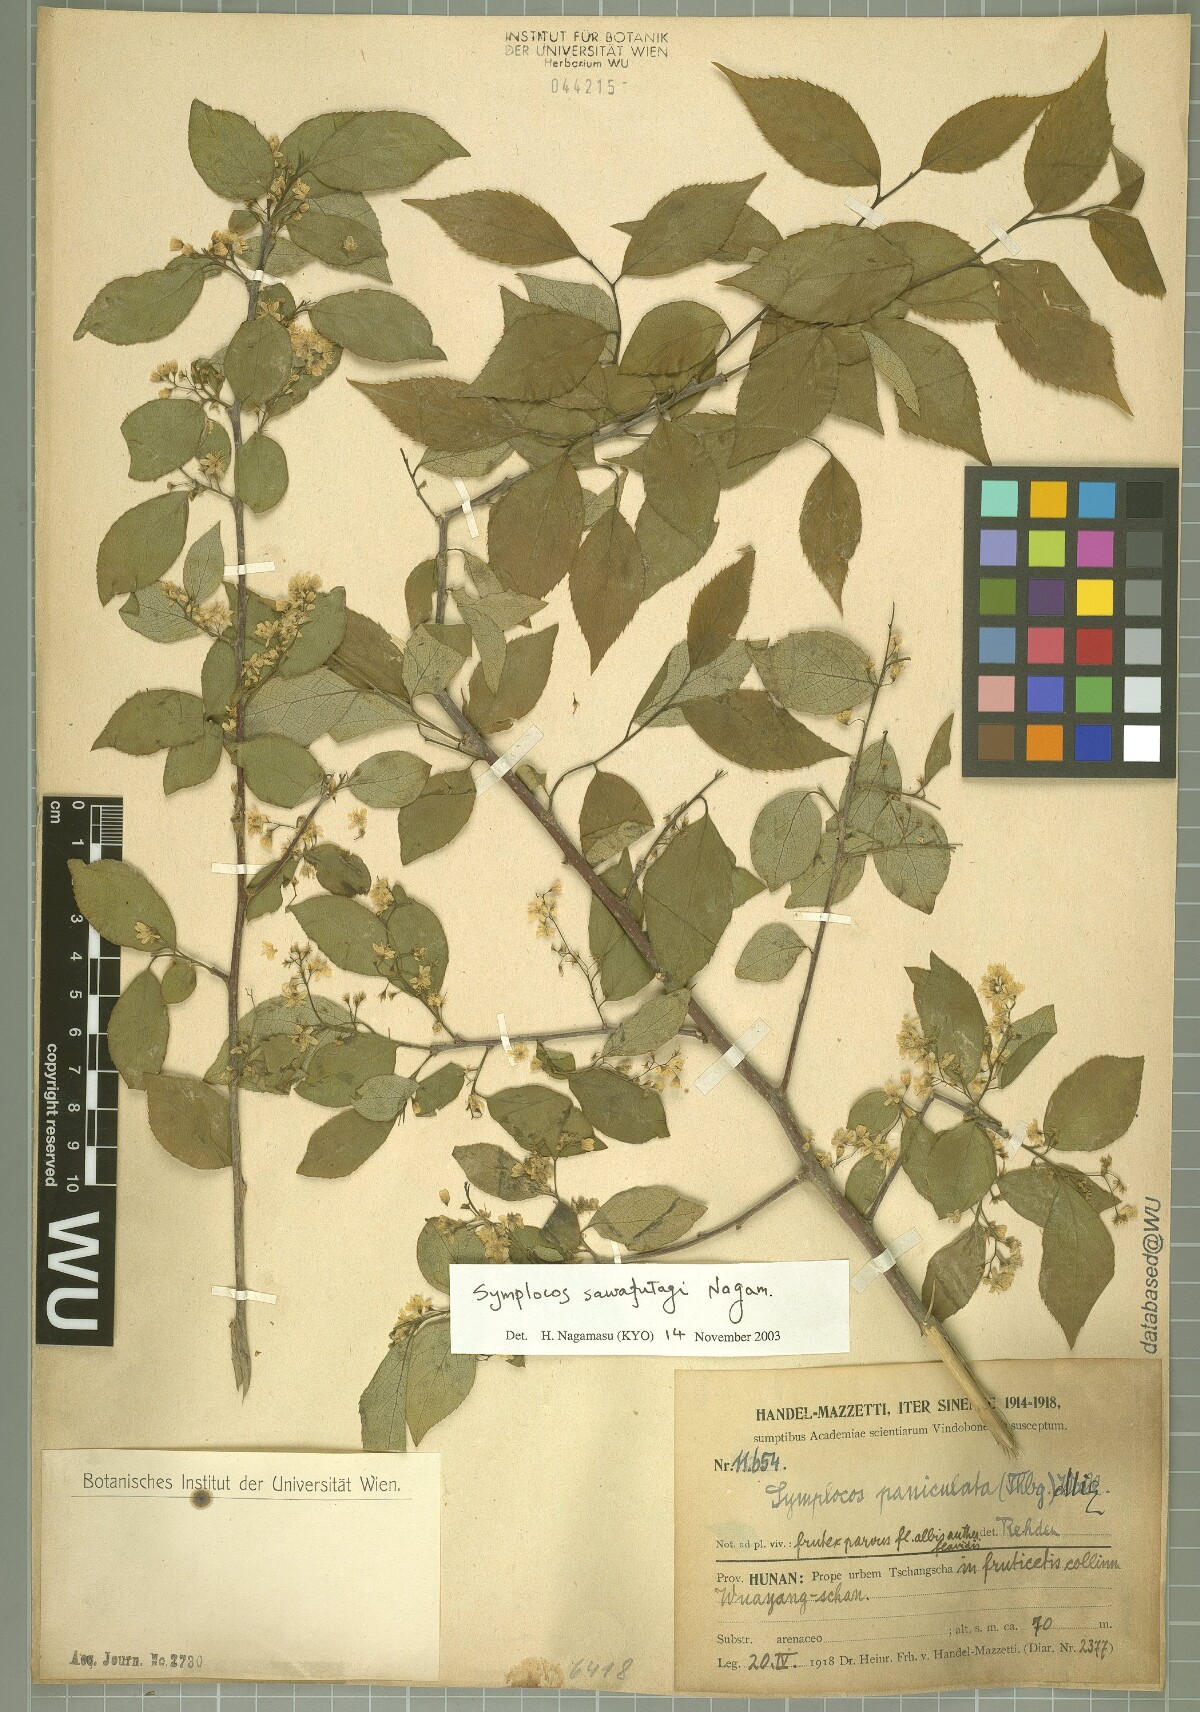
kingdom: Plantae
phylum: Tracheophyta
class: Magnoliopsida
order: Ericales
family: Symplocaceae
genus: Symplocos
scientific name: Symplocos sawafutagi
